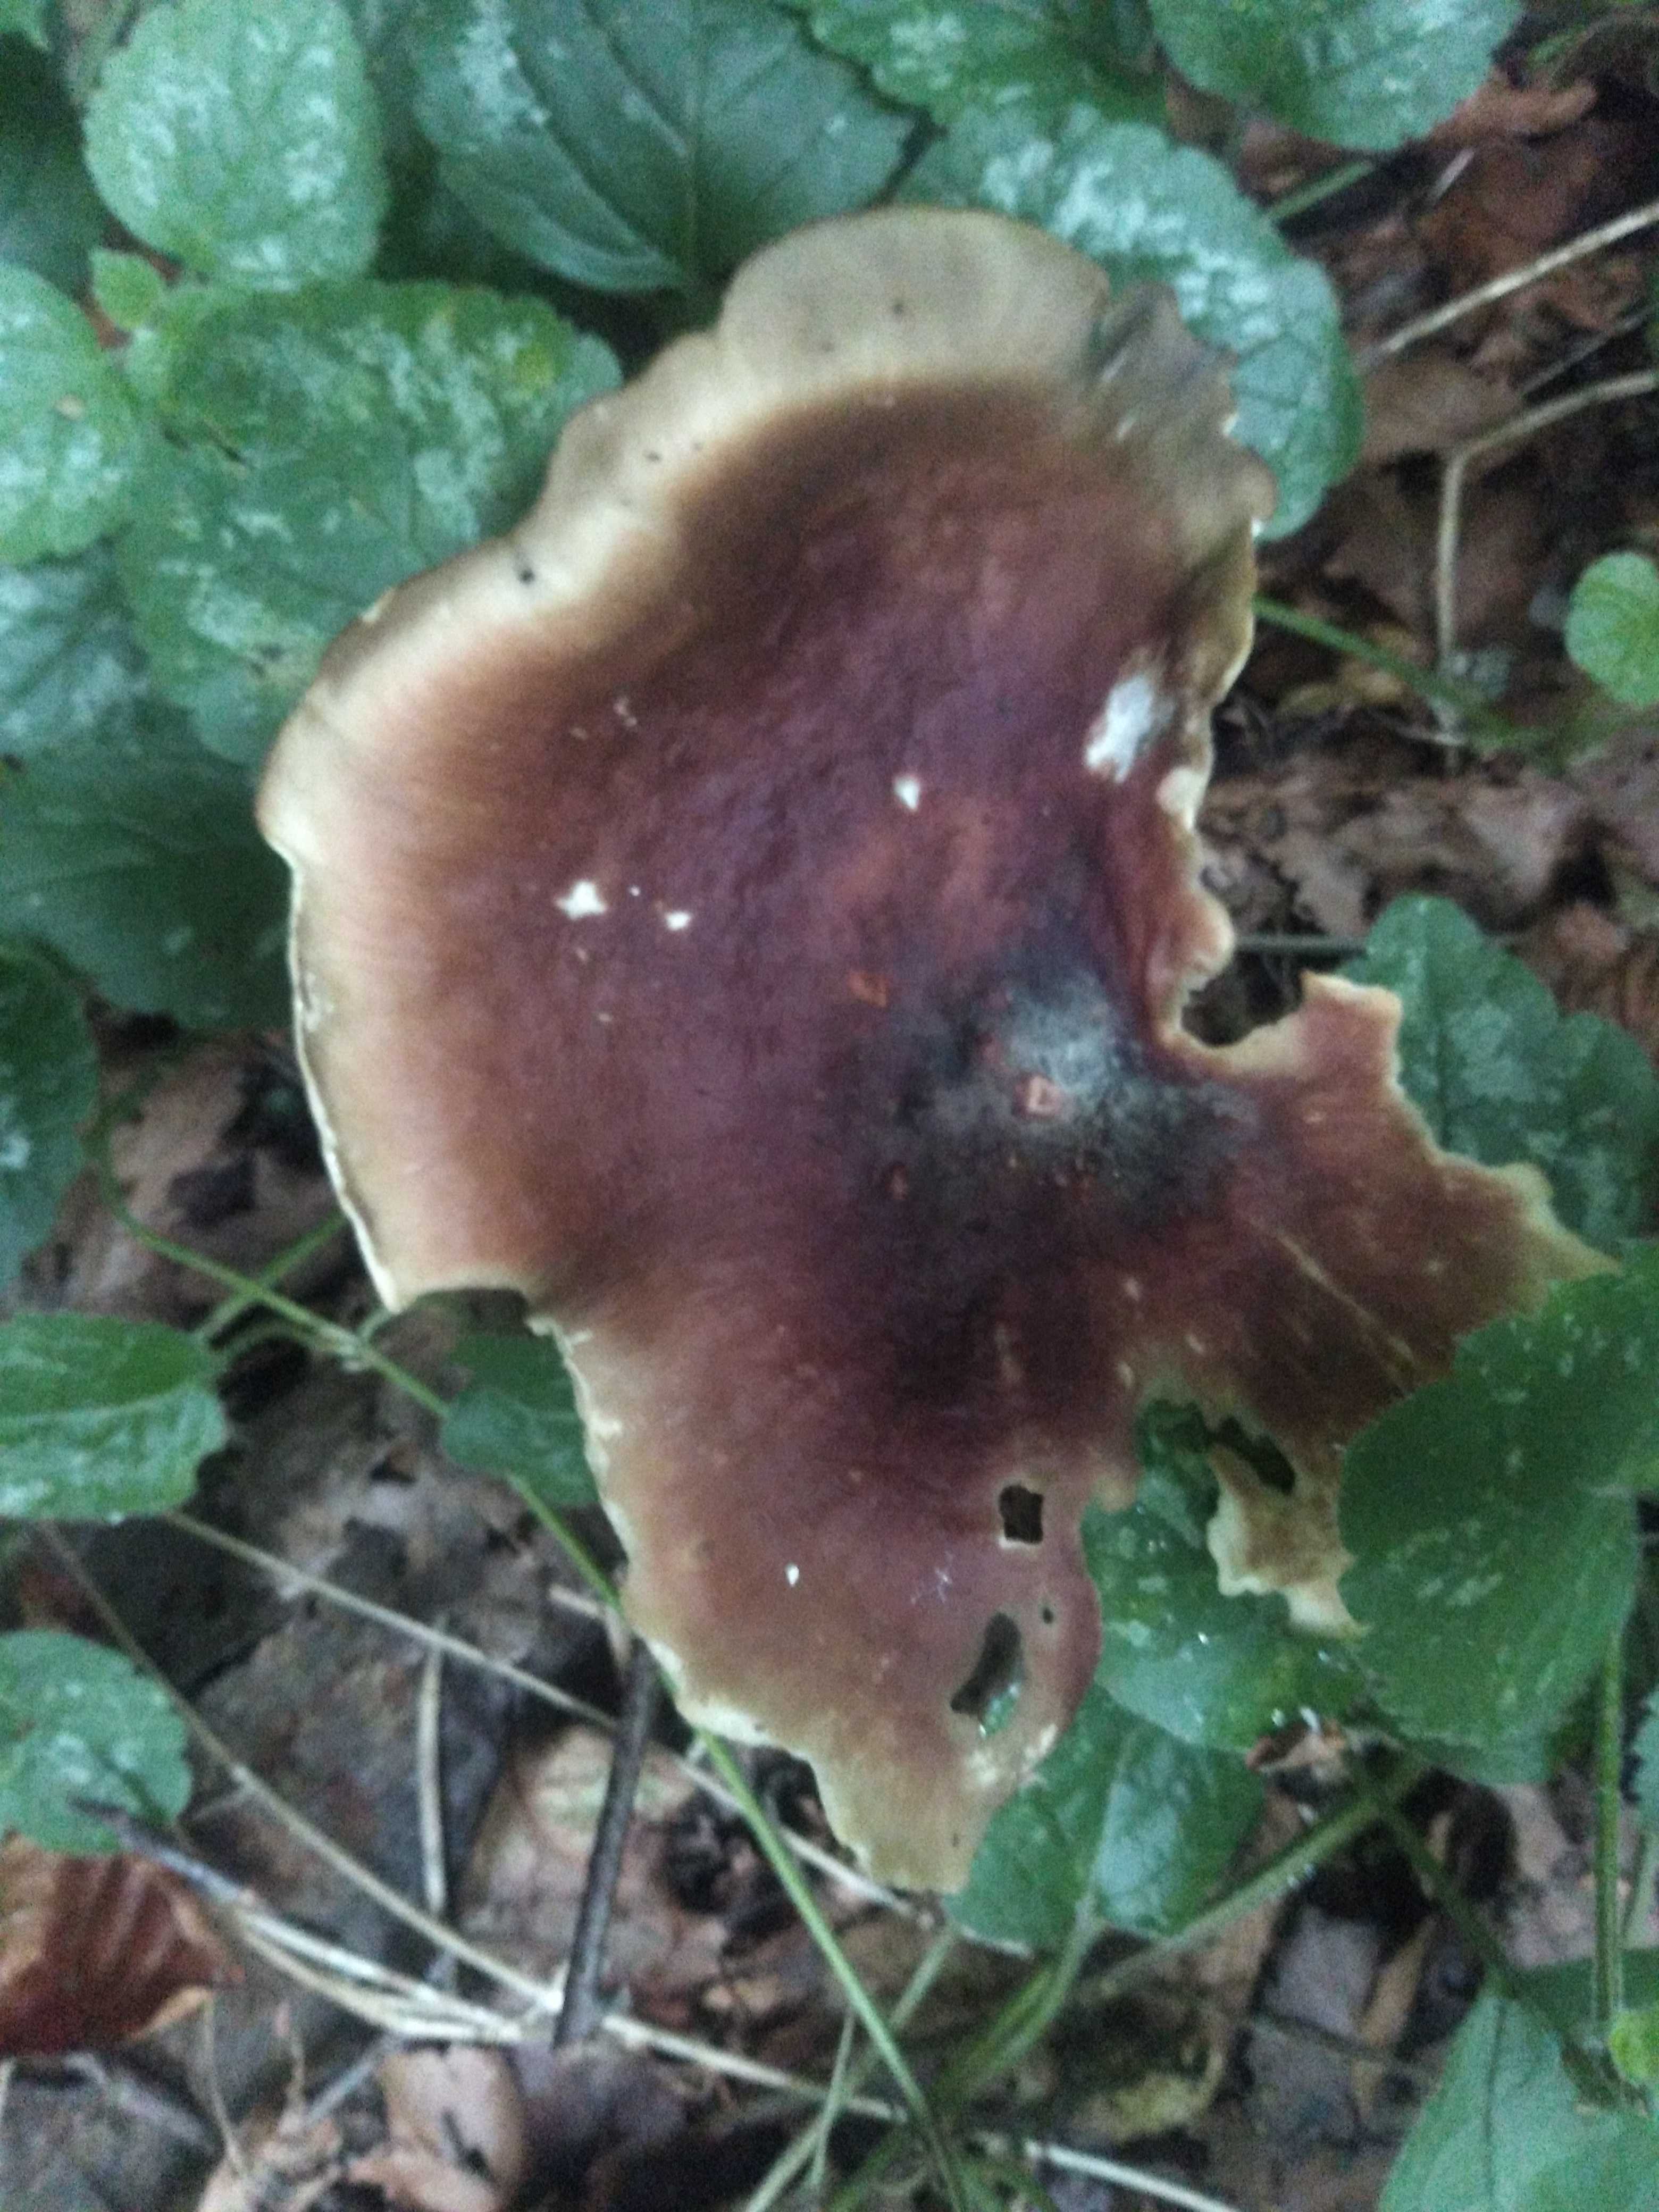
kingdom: Fungi
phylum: Basidiomycota
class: Agaricomycetes
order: Polyporales
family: Polyporaceae
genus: Picipes
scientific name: Picipes badius
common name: kastaniebrun stilkporesvamp
